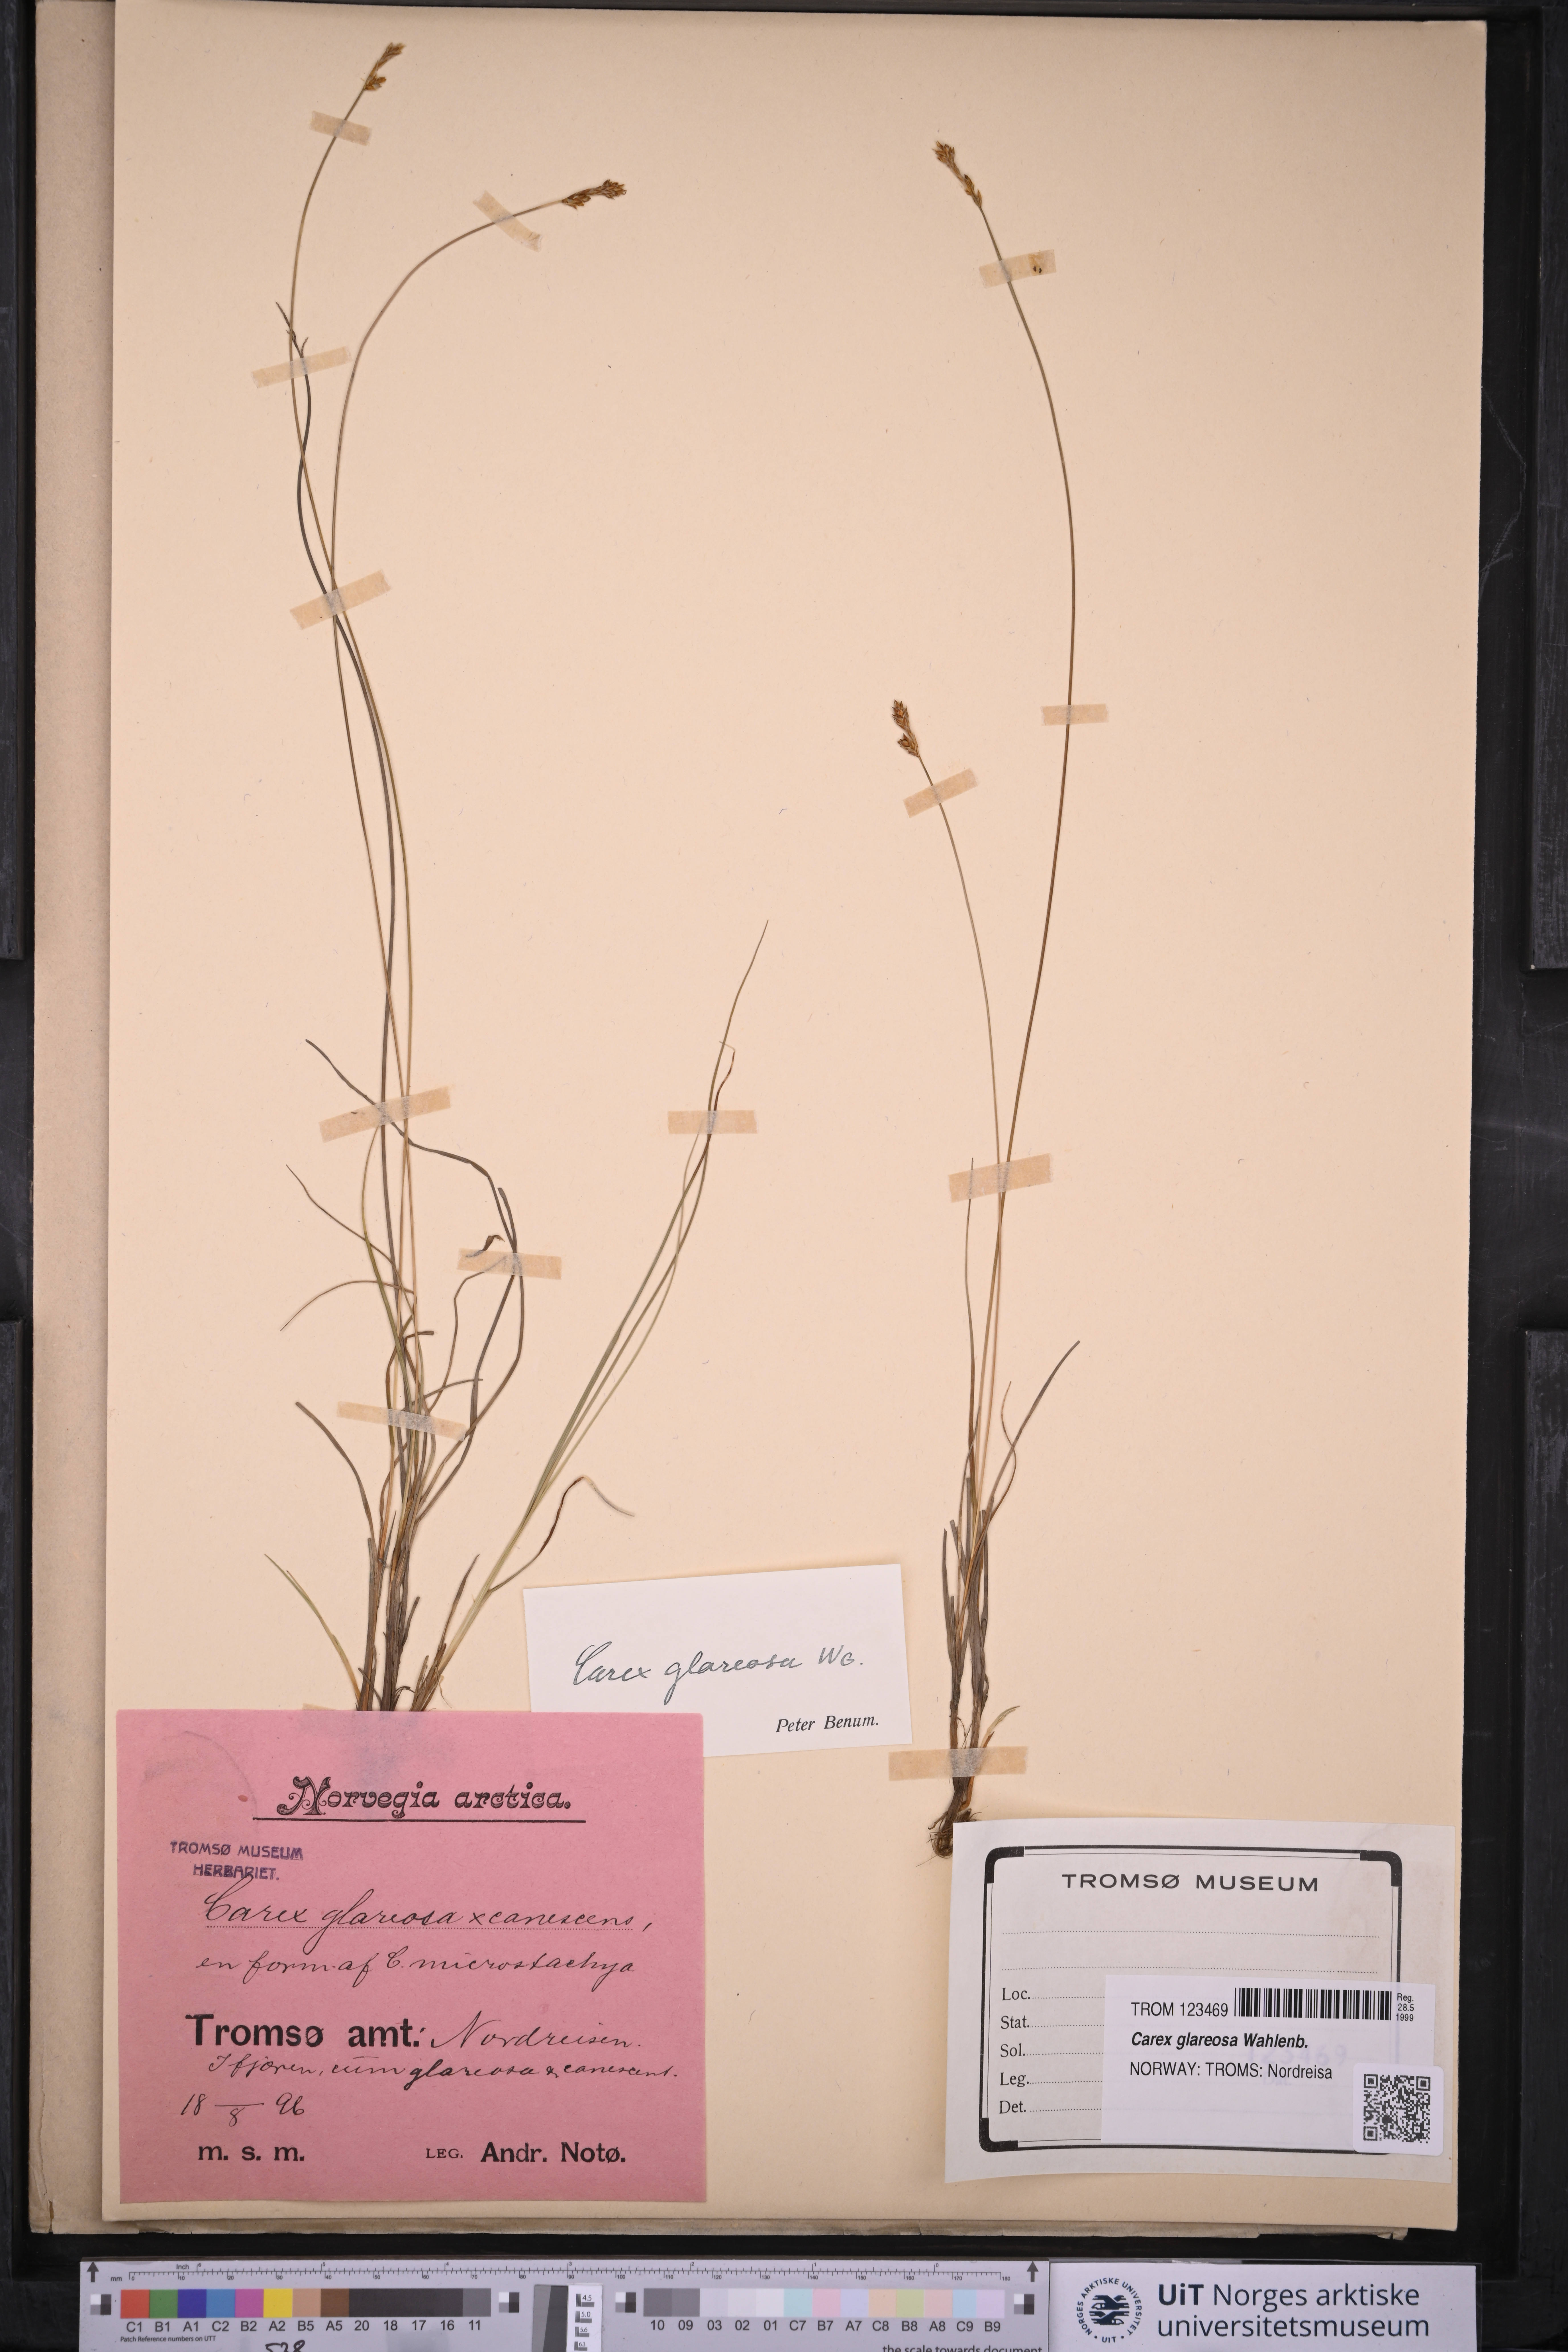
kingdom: Plantae
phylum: Tracheophyta
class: Liliopsida
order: Poales
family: Cyperaceae
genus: Carex
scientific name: Carex glareosa
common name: Clustered sedge
